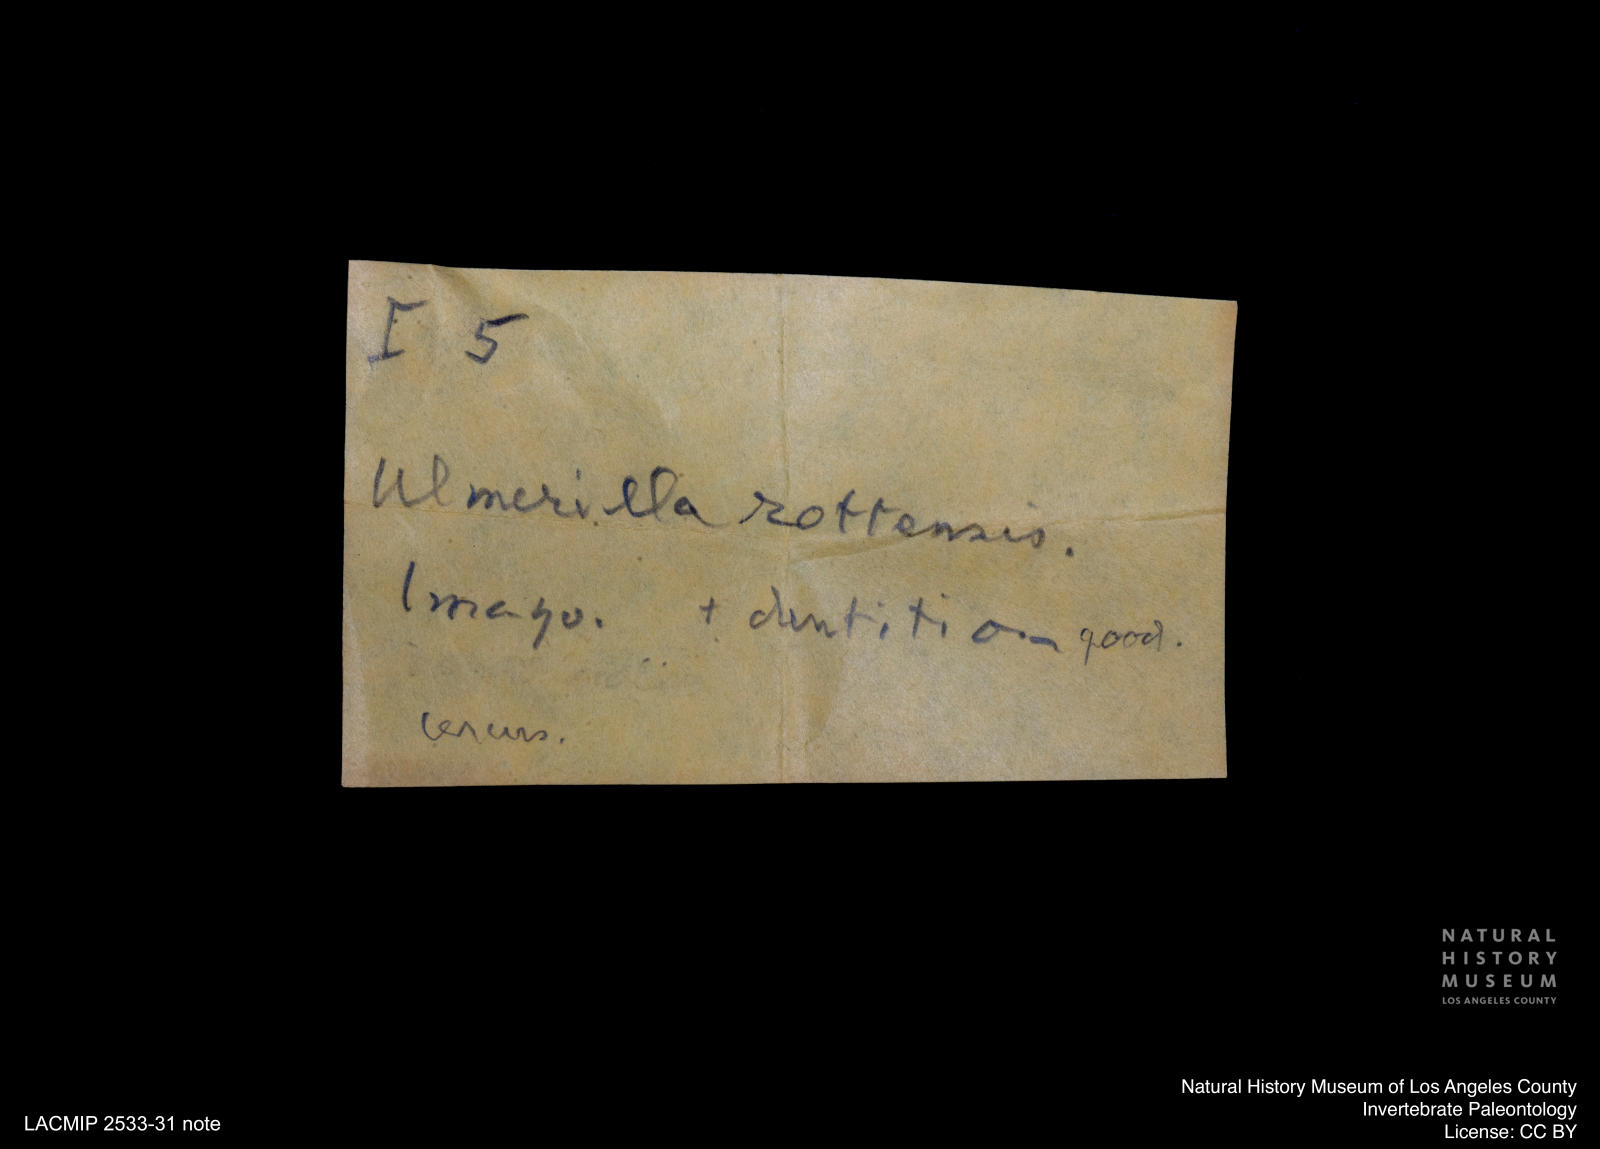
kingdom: Animalia
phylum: Arthropoda
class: Insecta
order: Blattodea
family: Hodotermitidae
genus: Ulmeriella
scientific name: Ulmeriella bauckhorni
